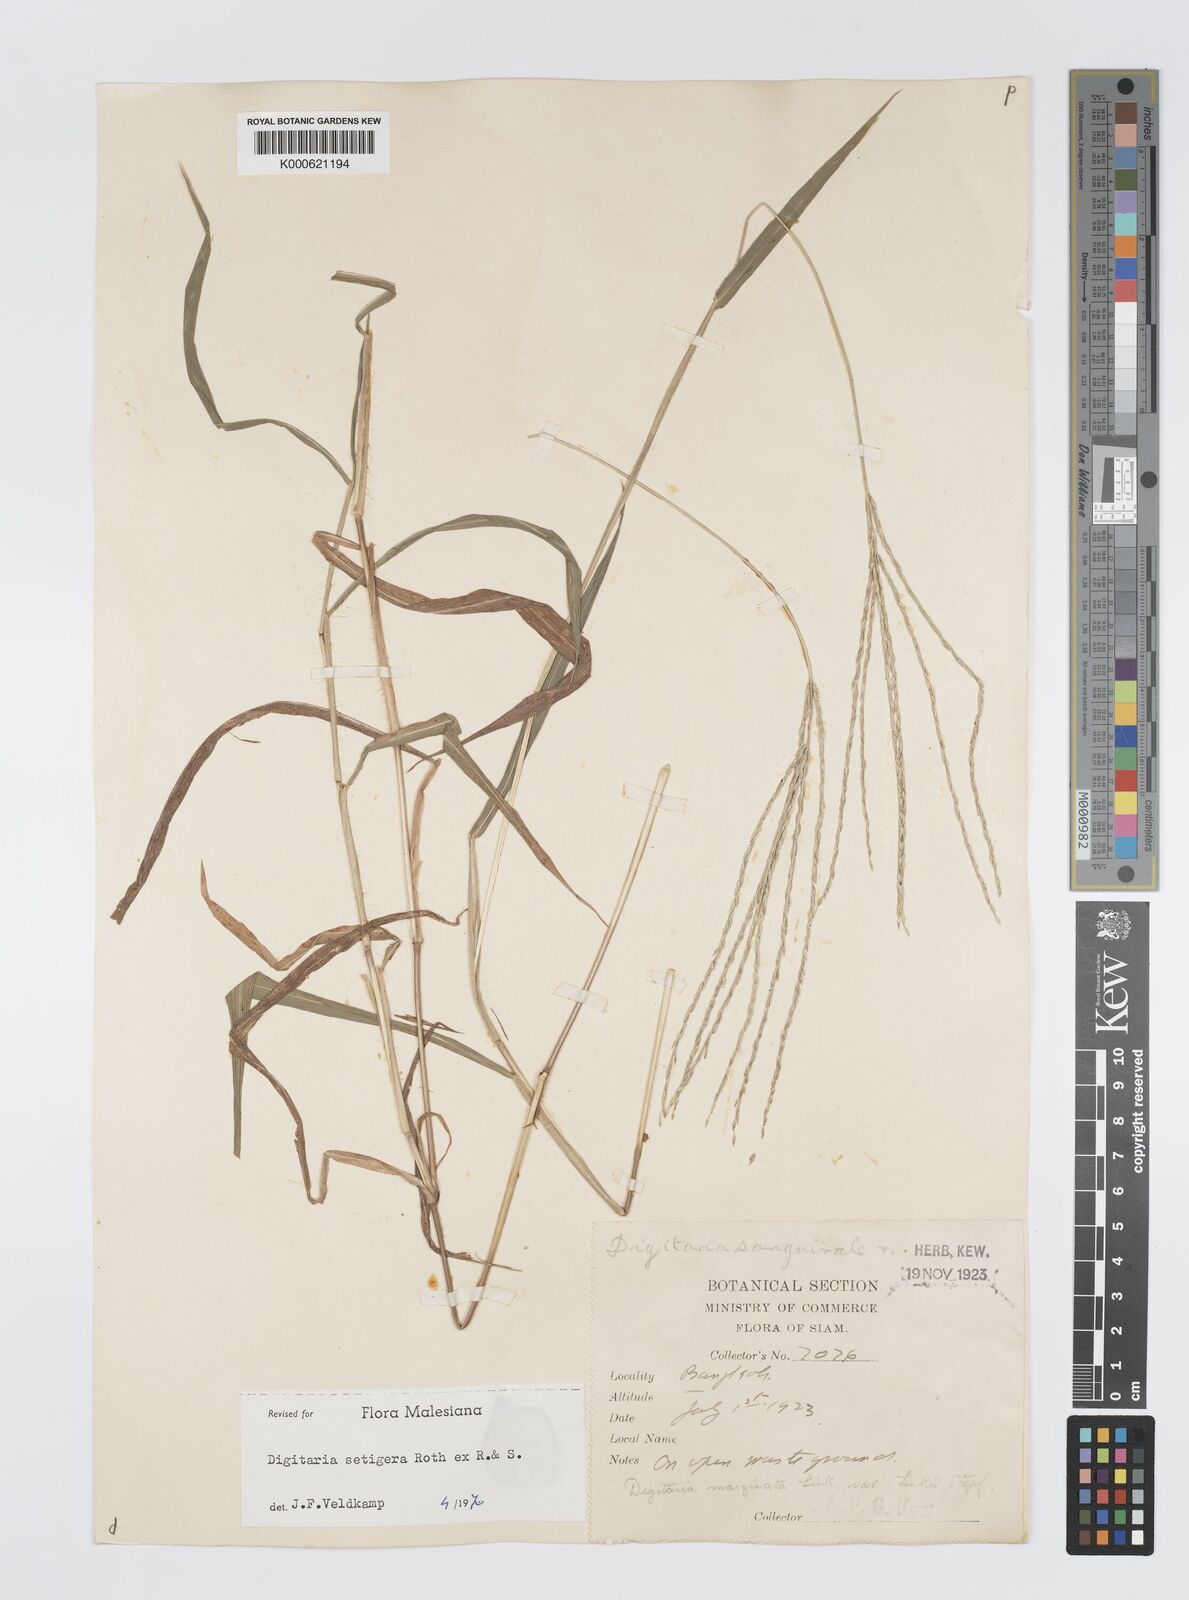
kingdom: Plantae
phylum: Tracheophyta
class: Liliopsida
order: Poales
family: Poaceae
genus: Digitaria
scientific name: Digitaria
